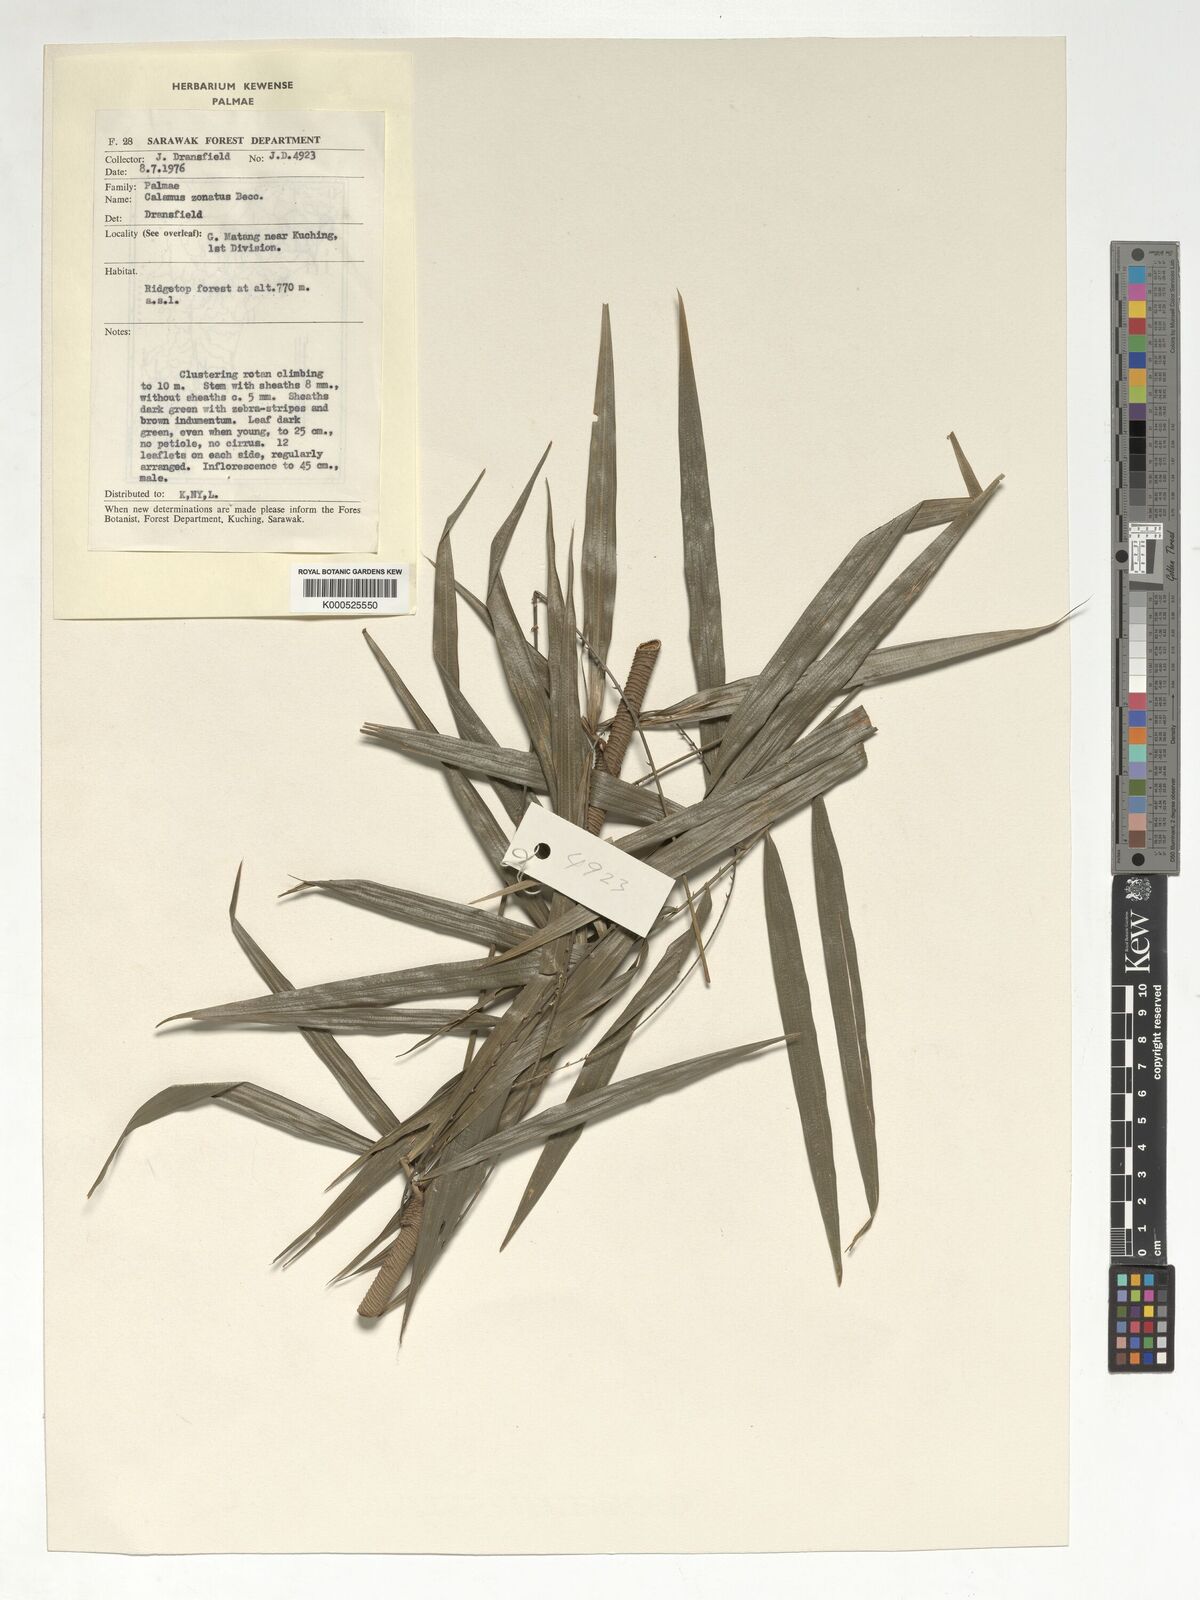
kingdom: Plantae
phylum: Tracheophyta
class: Liliopsida
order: Arecales
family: Arecaceae
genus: Calamus
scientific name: Calamus zonatus
